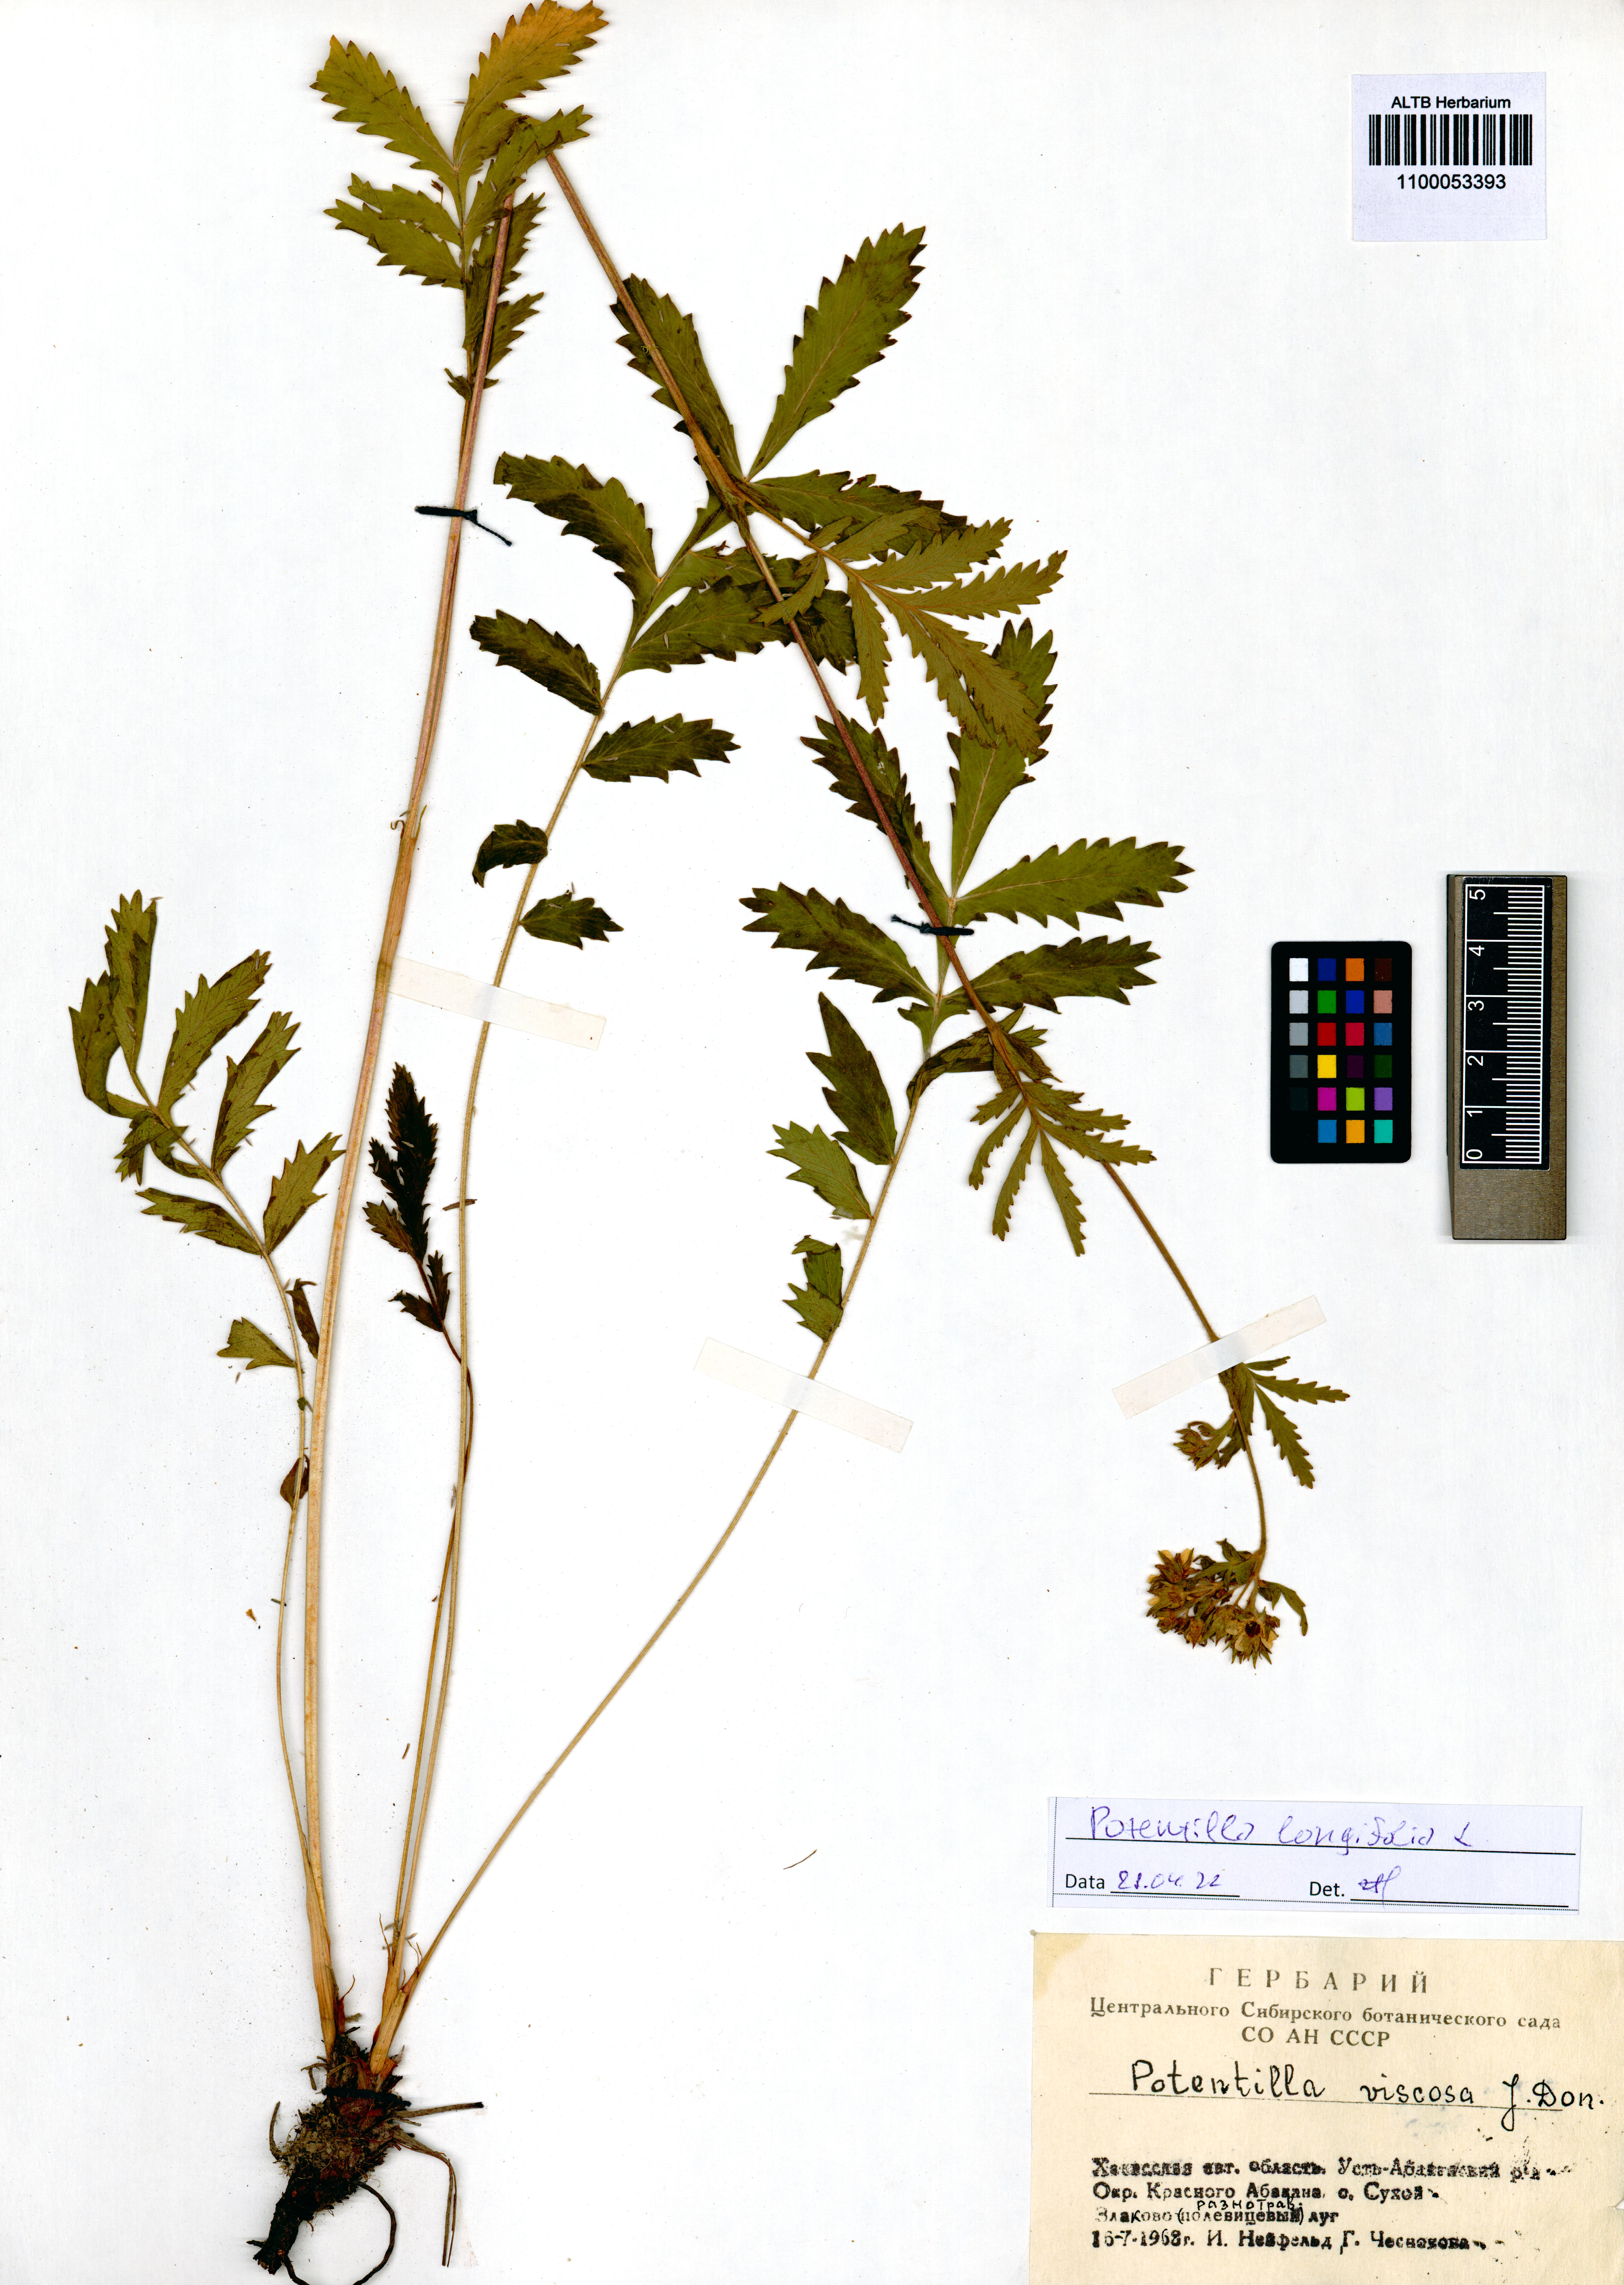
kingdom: Plantae
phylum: Tracheophyta
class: Magnoliopsida
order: Rosales
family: Rosaceae
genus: Potentilla
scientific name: Potentilla longifolia
